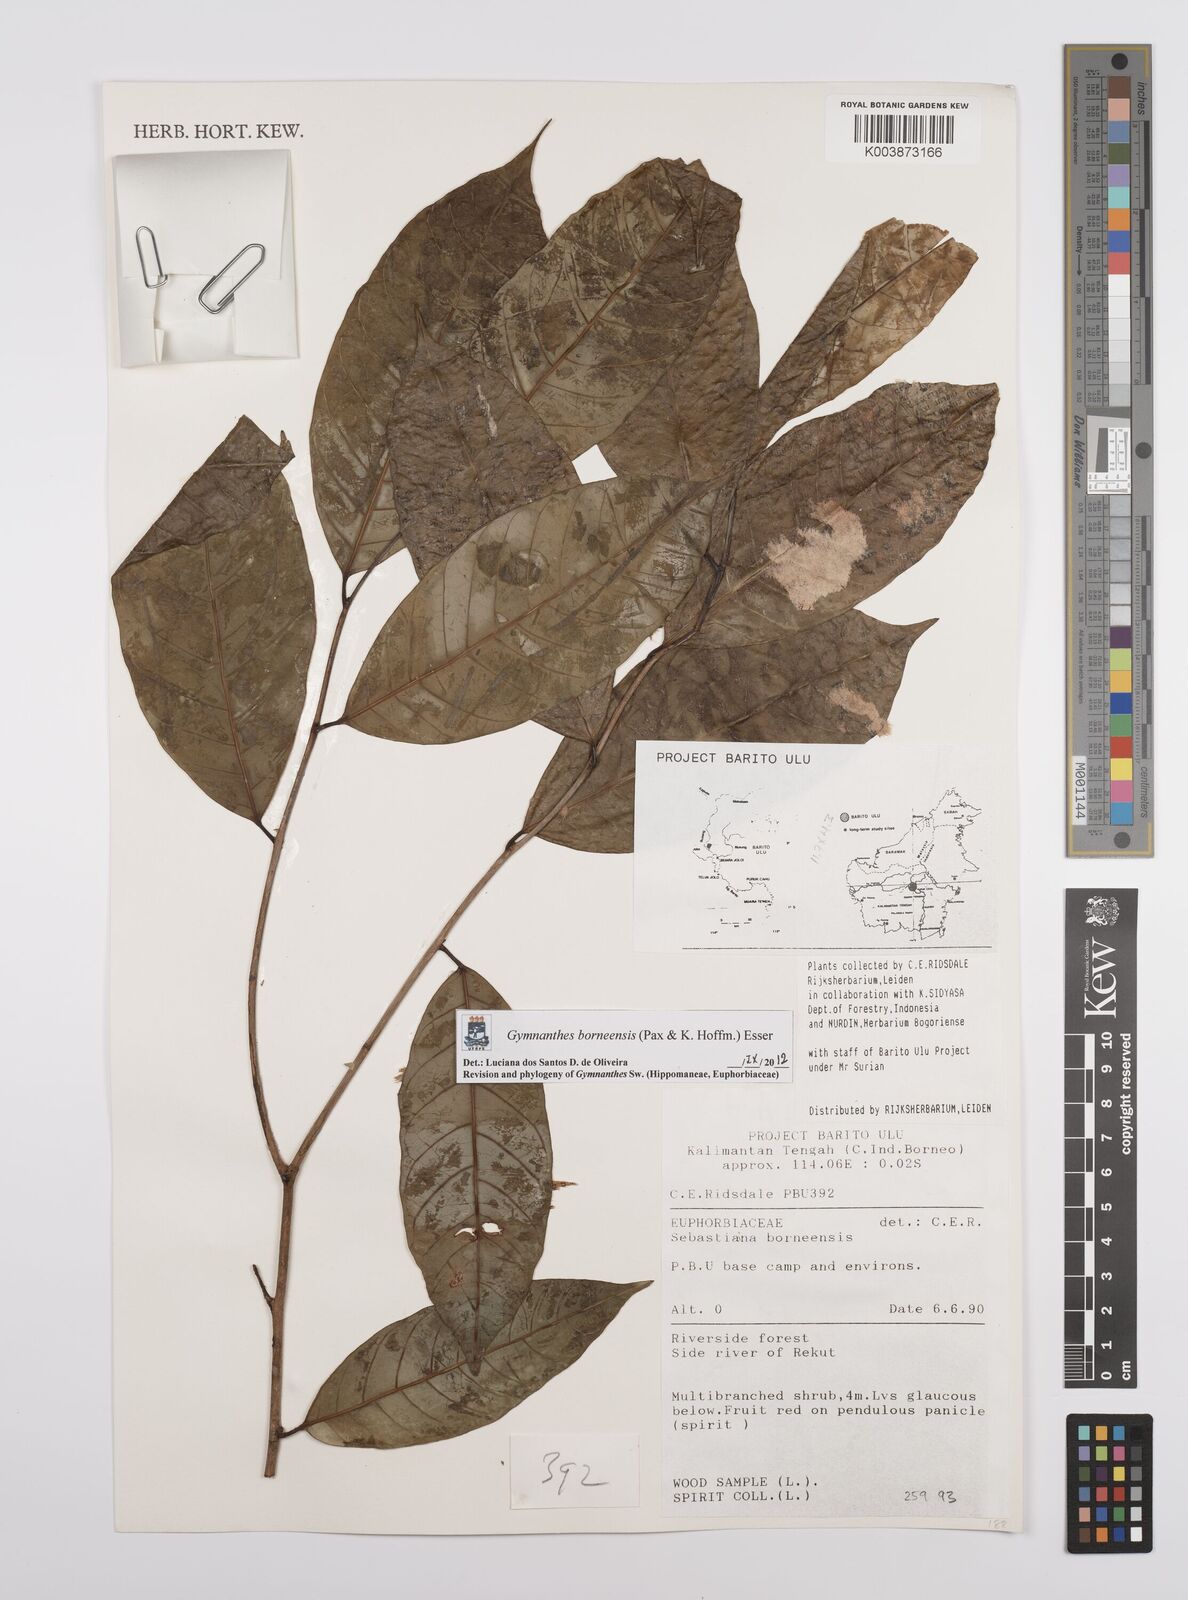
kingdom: Plantae
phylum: Tracheophyta
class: Magnoliopsida
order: Malpighiales
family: Euphorbiaceae
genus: Gymnanthes
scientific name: Gymnanthes borneensis
